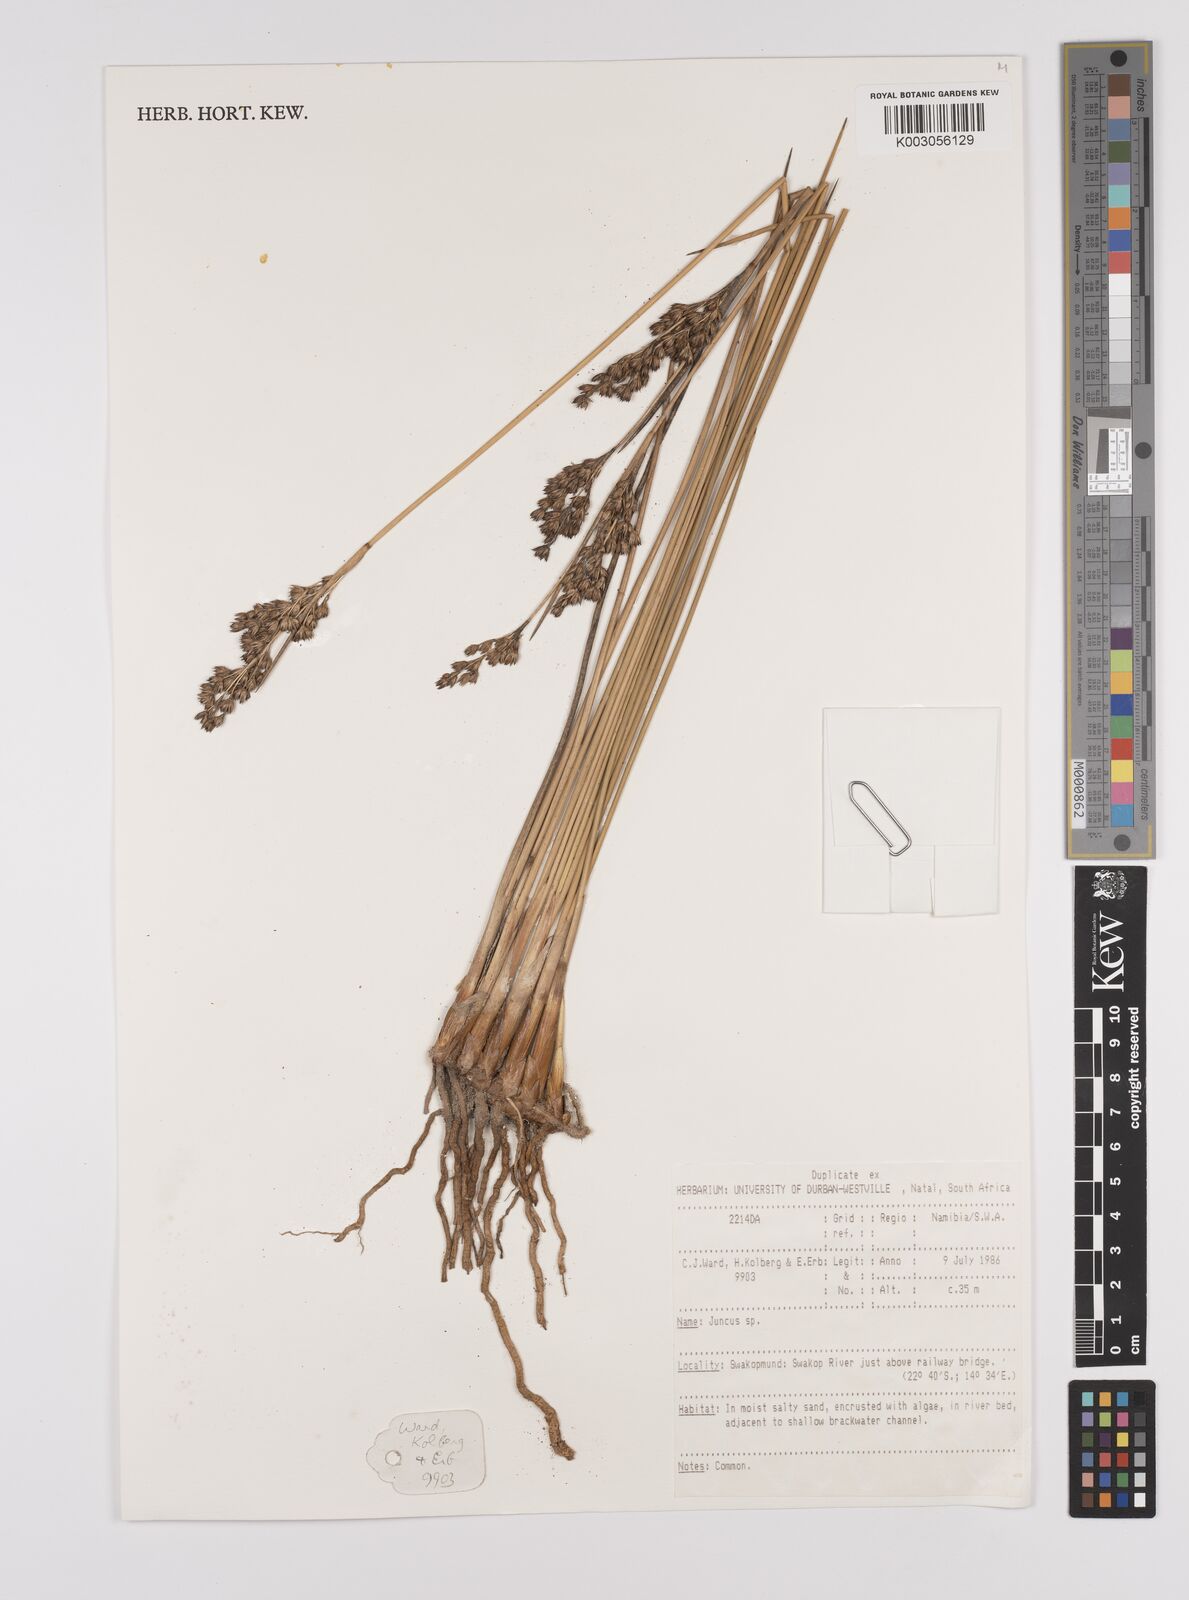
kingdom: Plantae
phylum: Tracheophyta
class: Liliopsida
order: Poales
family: Juncaceae
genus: Juncus
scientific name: Juncus
